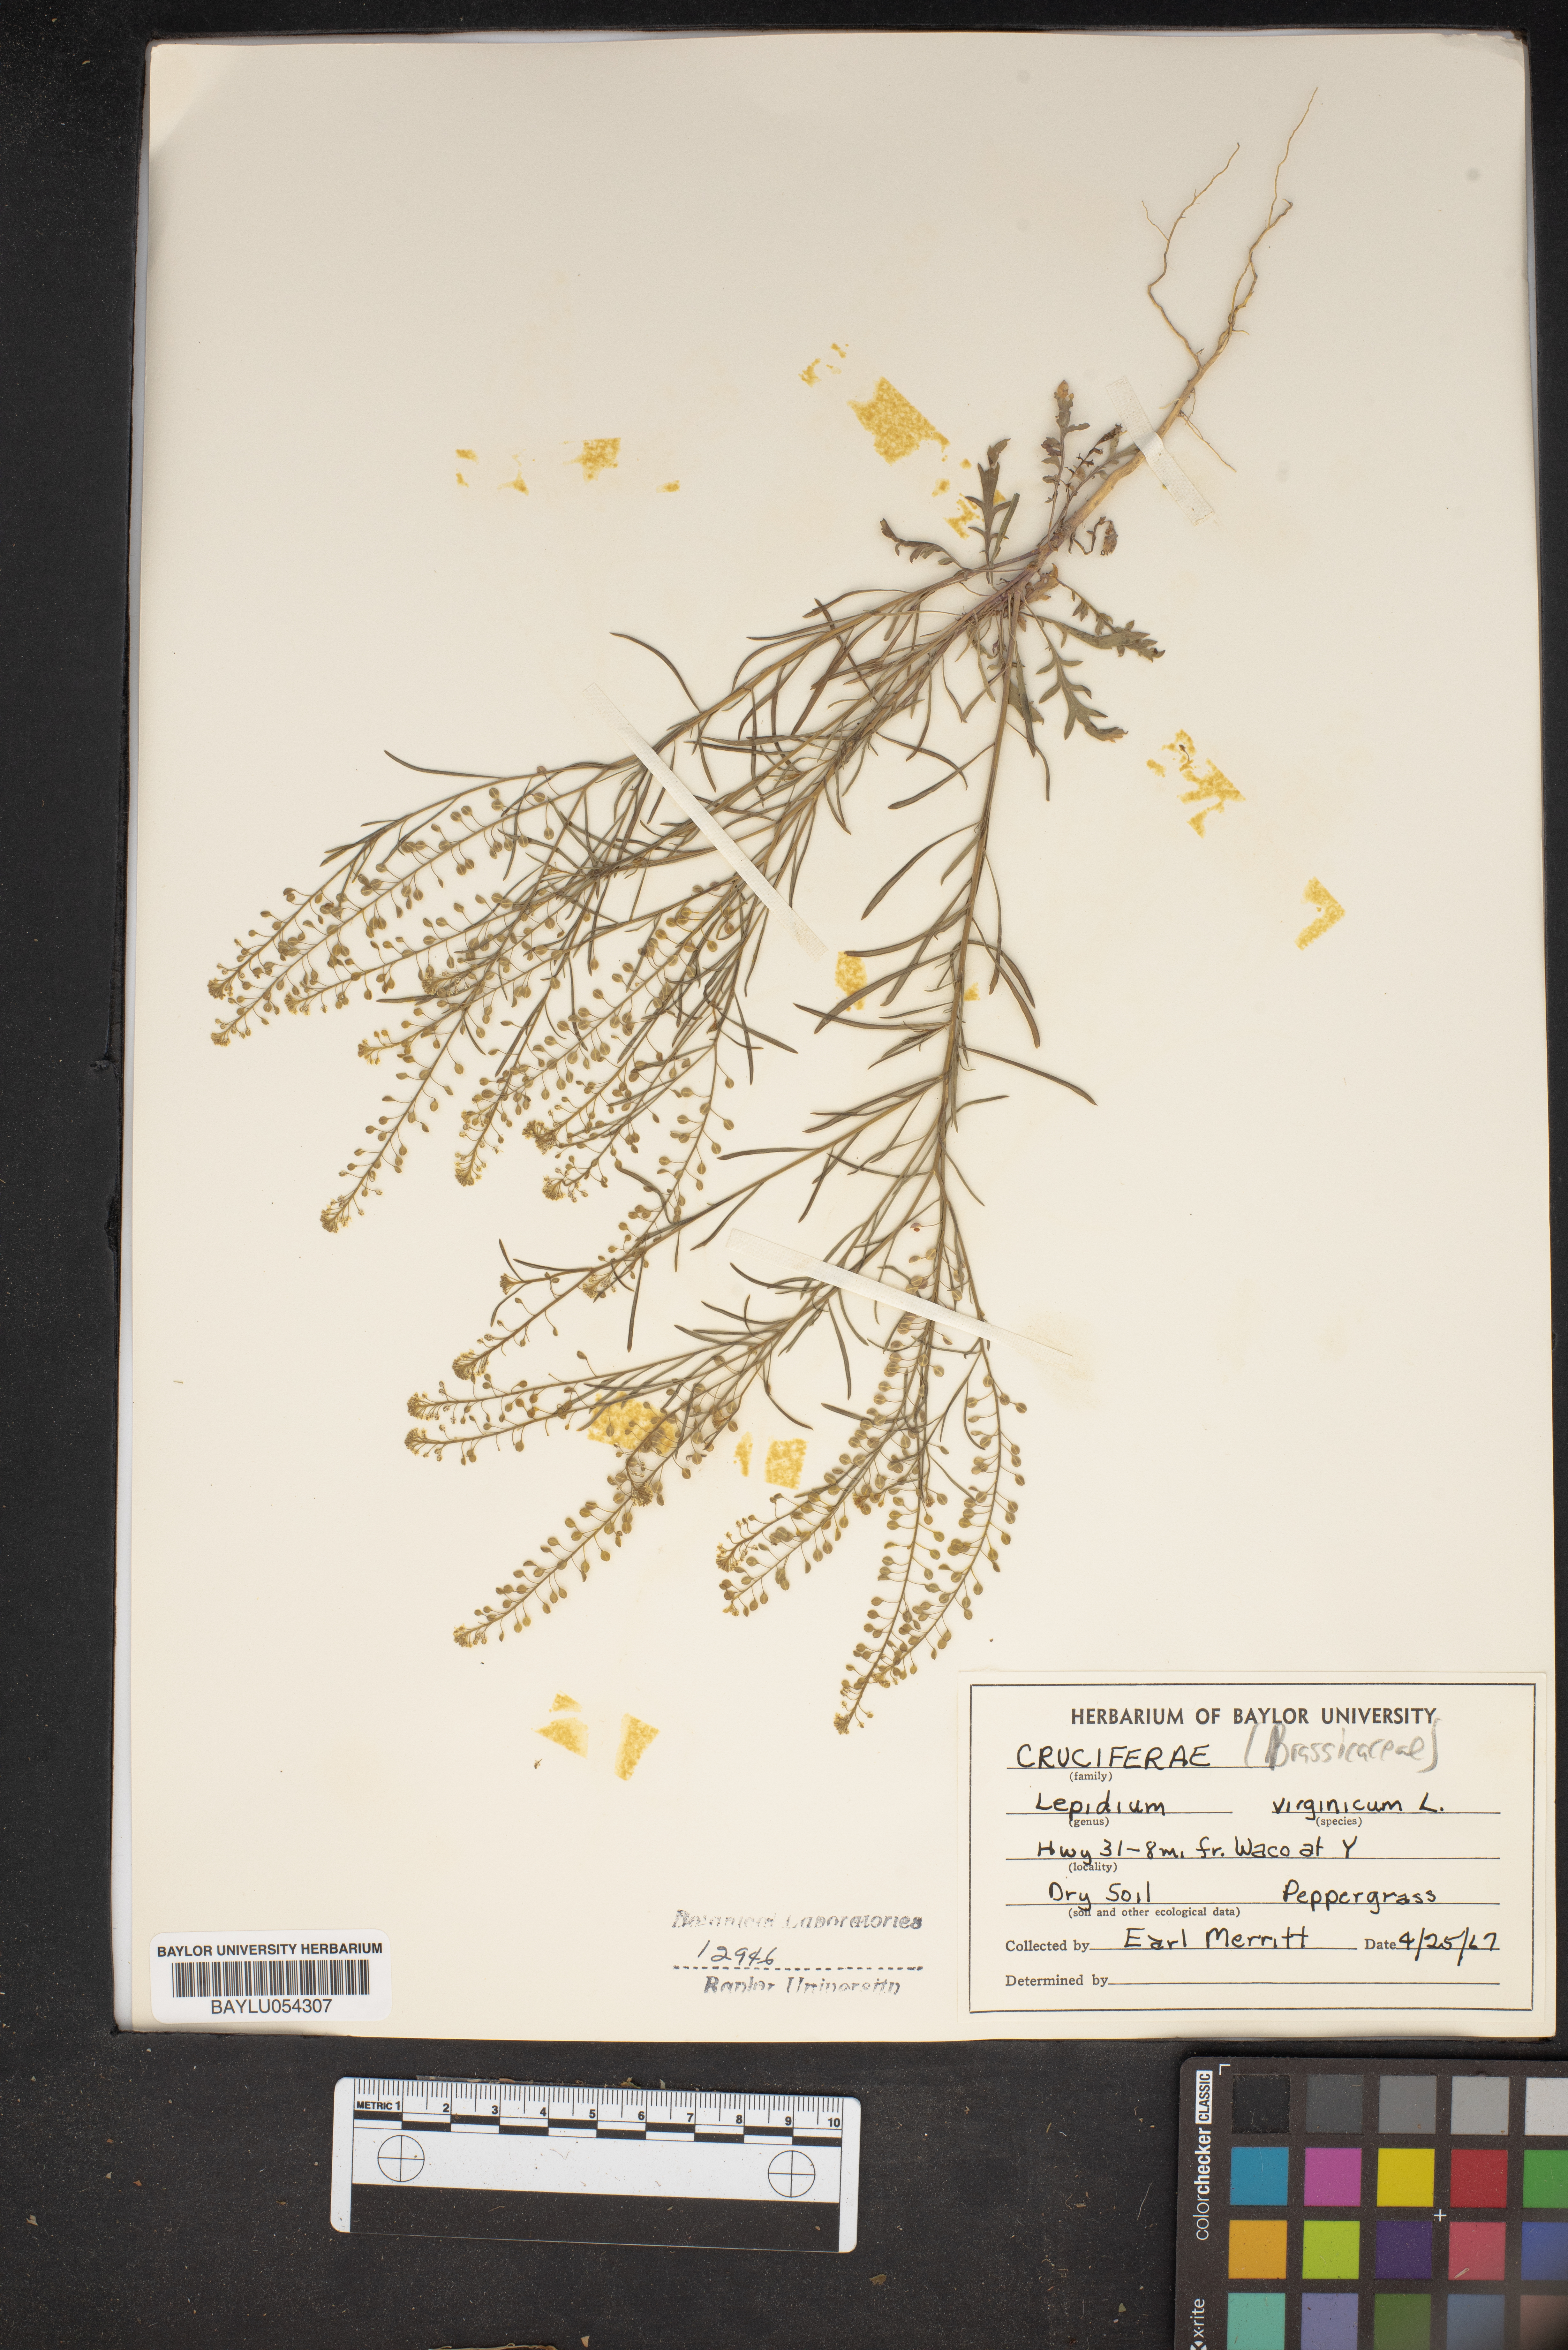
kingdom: Plantae
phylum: Tracheophyta
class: Magnoliopsida
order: Brassicales
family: Brassicaceae
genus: Lepidium
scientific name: Lepidium virginicum
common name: Least pepperwort
